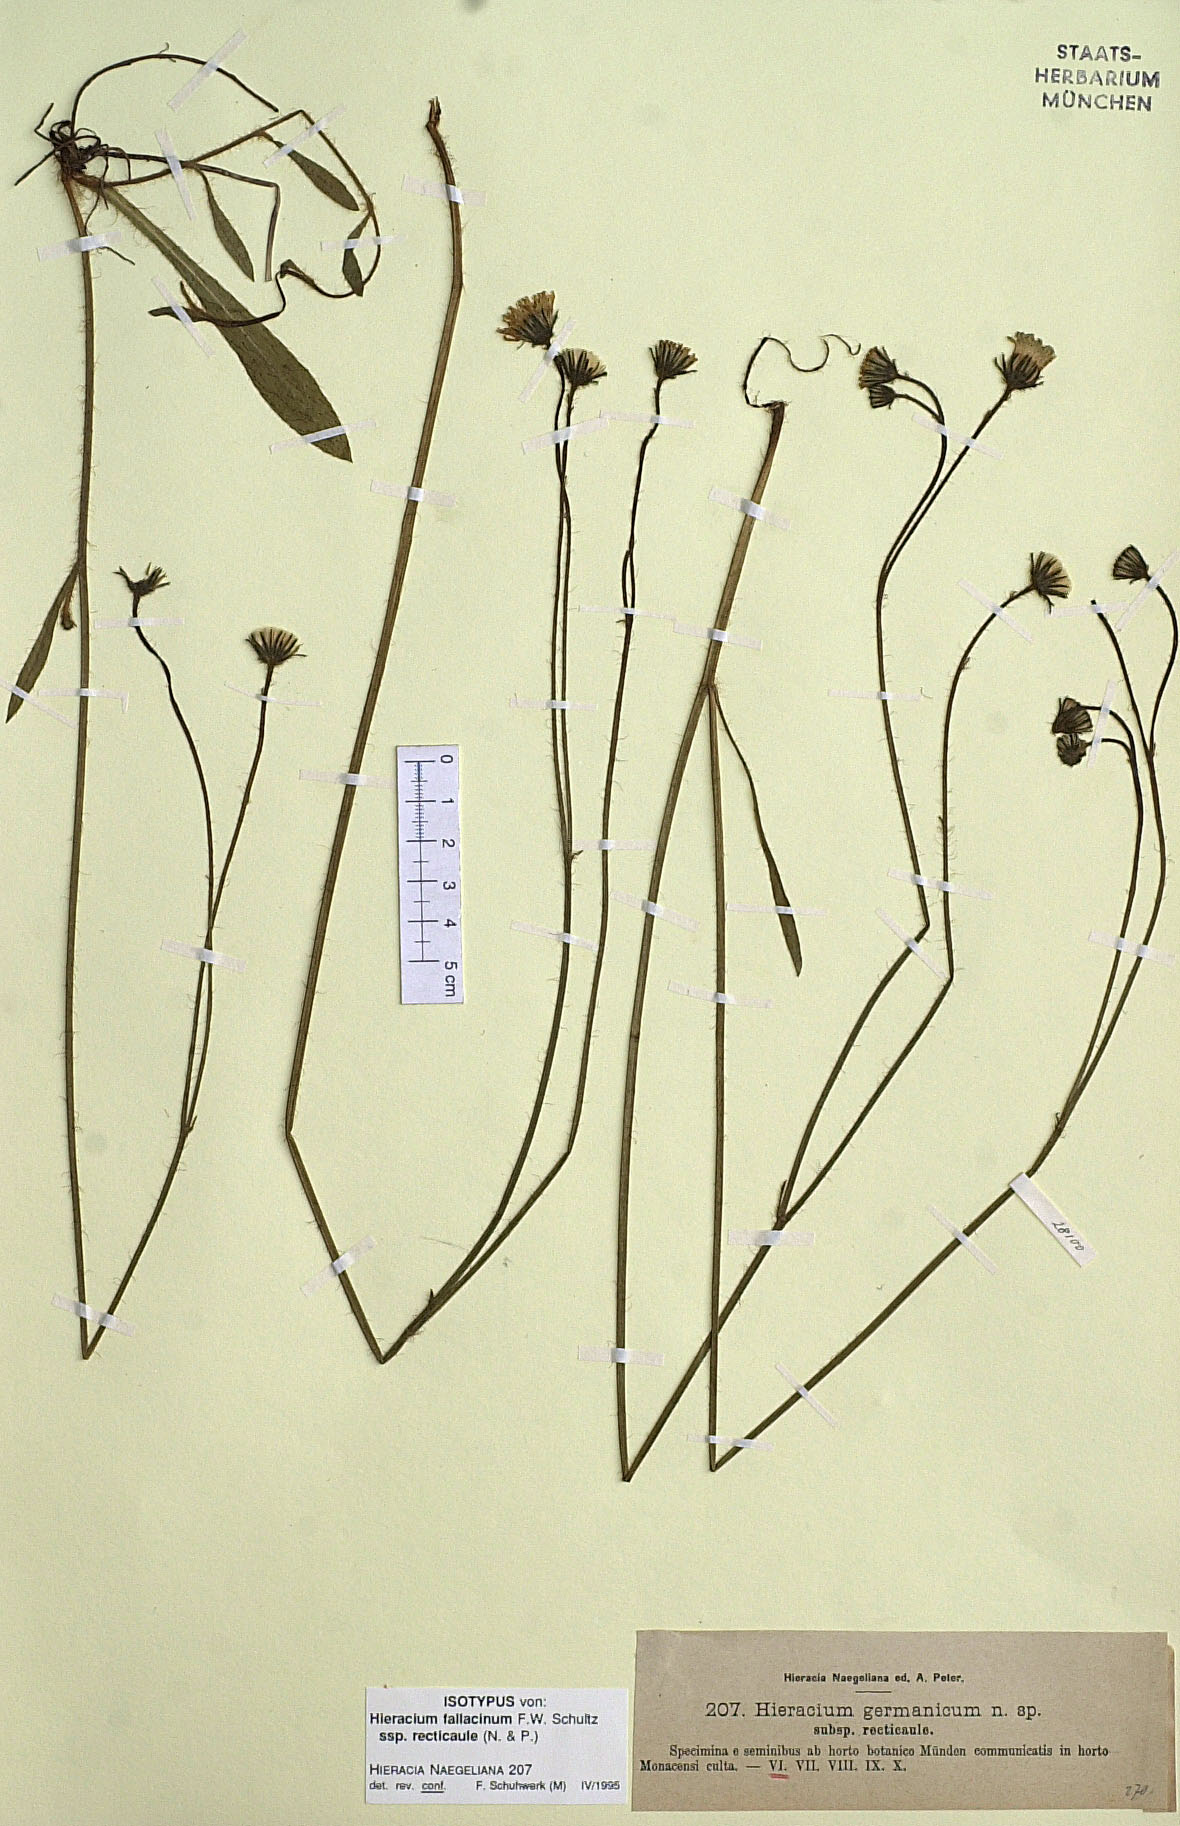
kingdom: Plantae
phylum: Tracheophyta
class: Magnoliopsida
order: Asterales
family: Asteraceae
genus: Pilosella
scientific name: Pilosella fallacina
